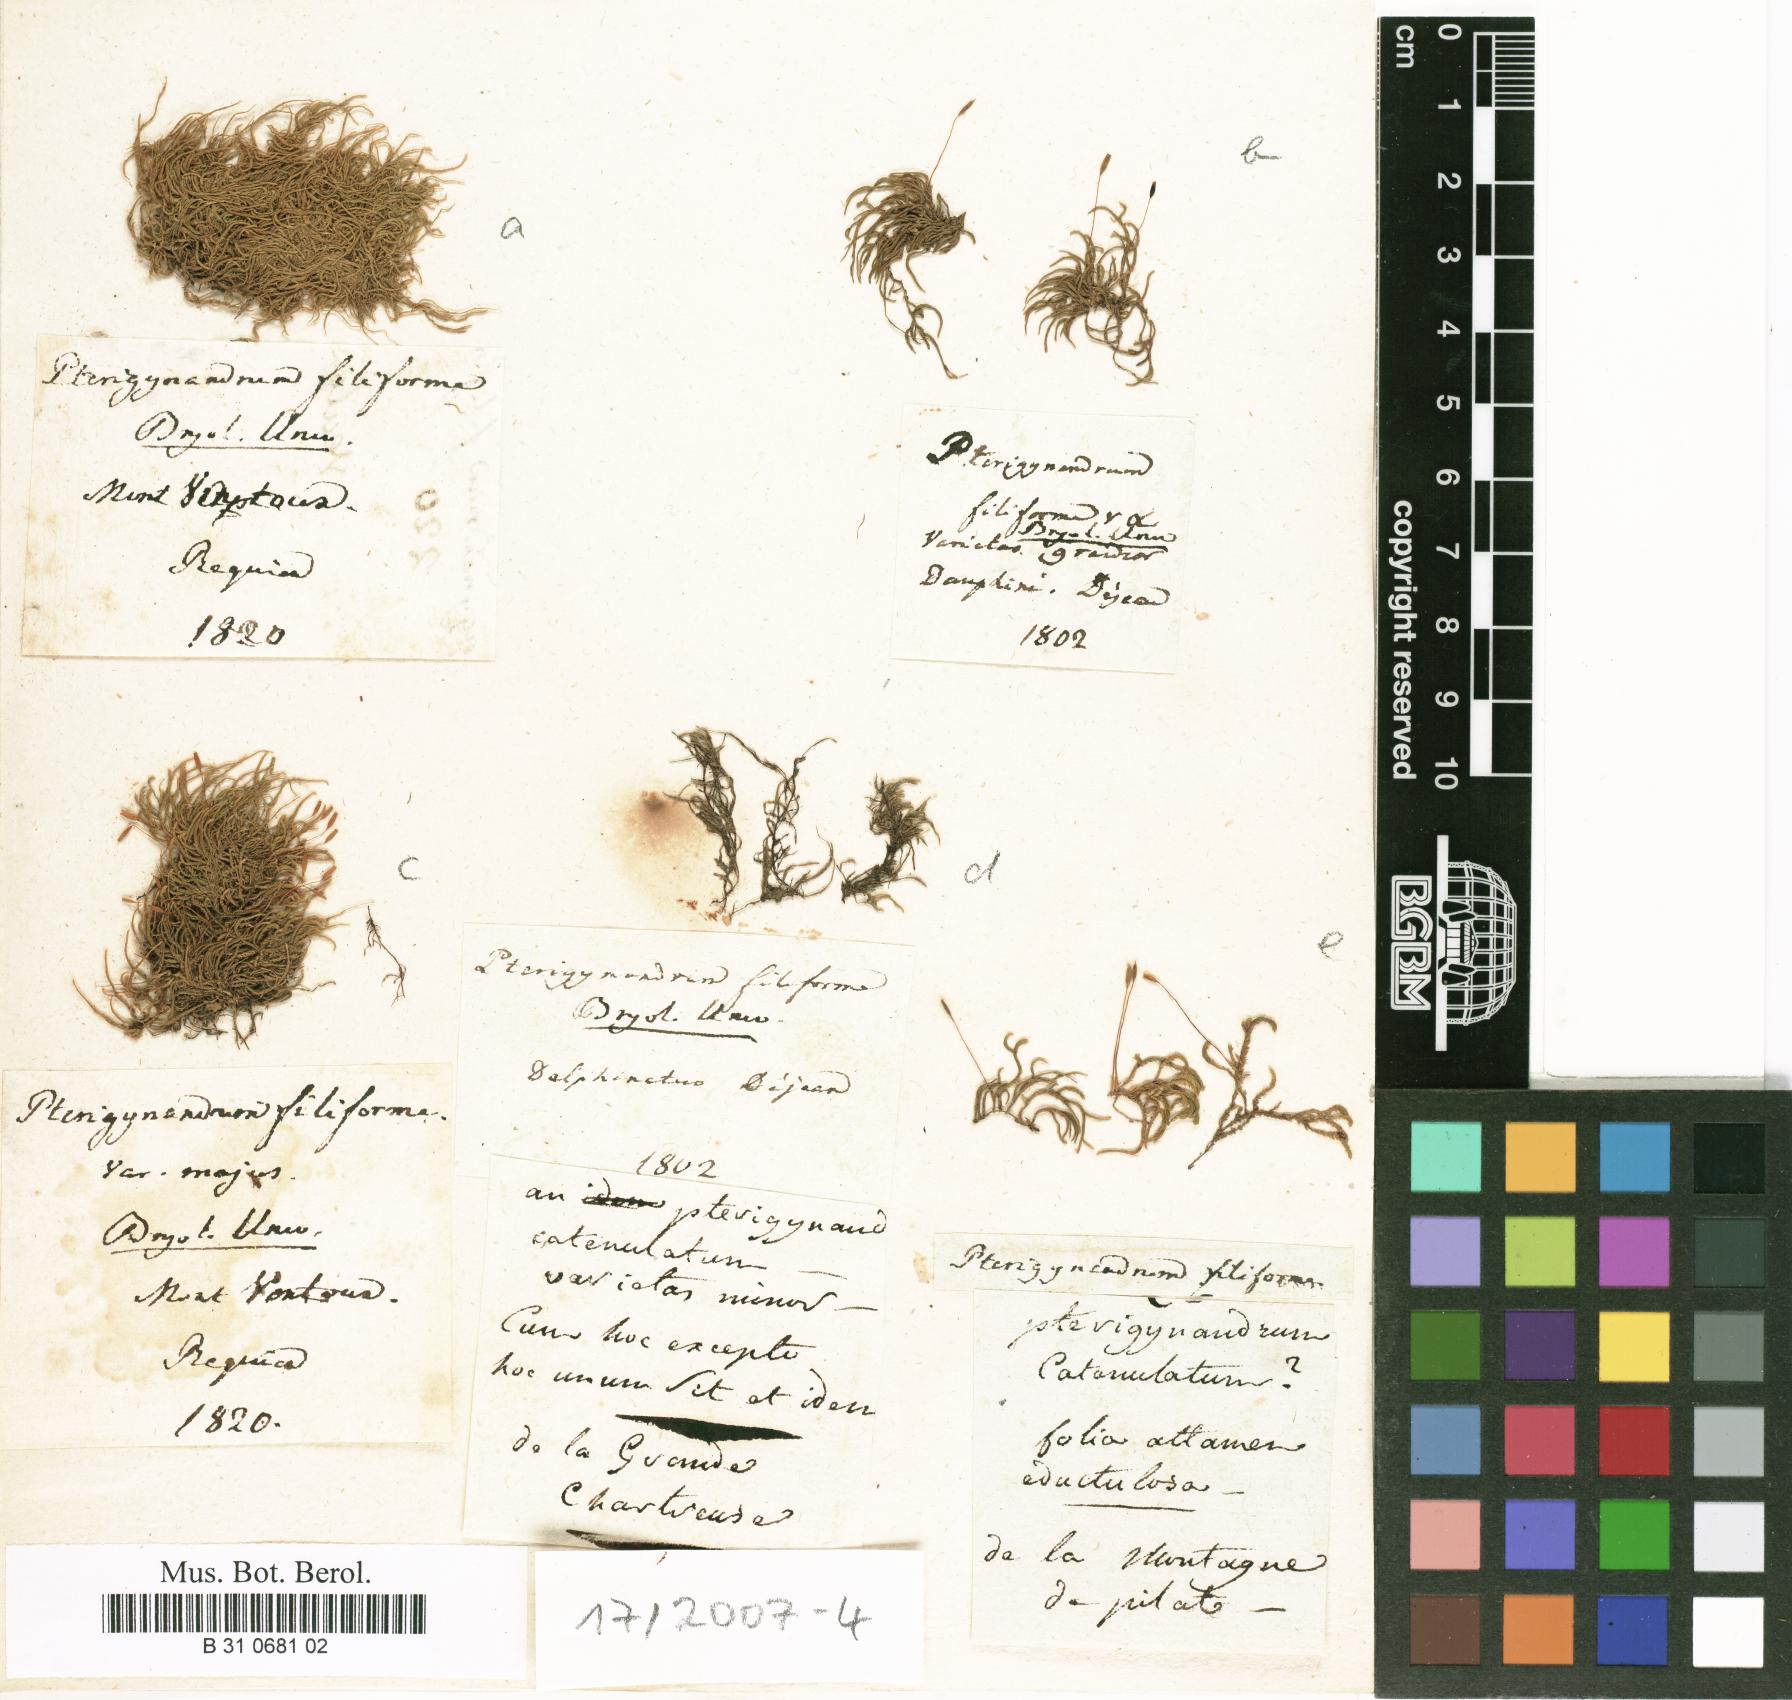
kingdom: Plantae
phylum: Bryophyta
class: Bryopsida
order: Hypnales
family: Pterigynandraceae
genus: Pterigynandrum
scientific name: Pterigynandrum filiforme
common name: Capillary wing moss
